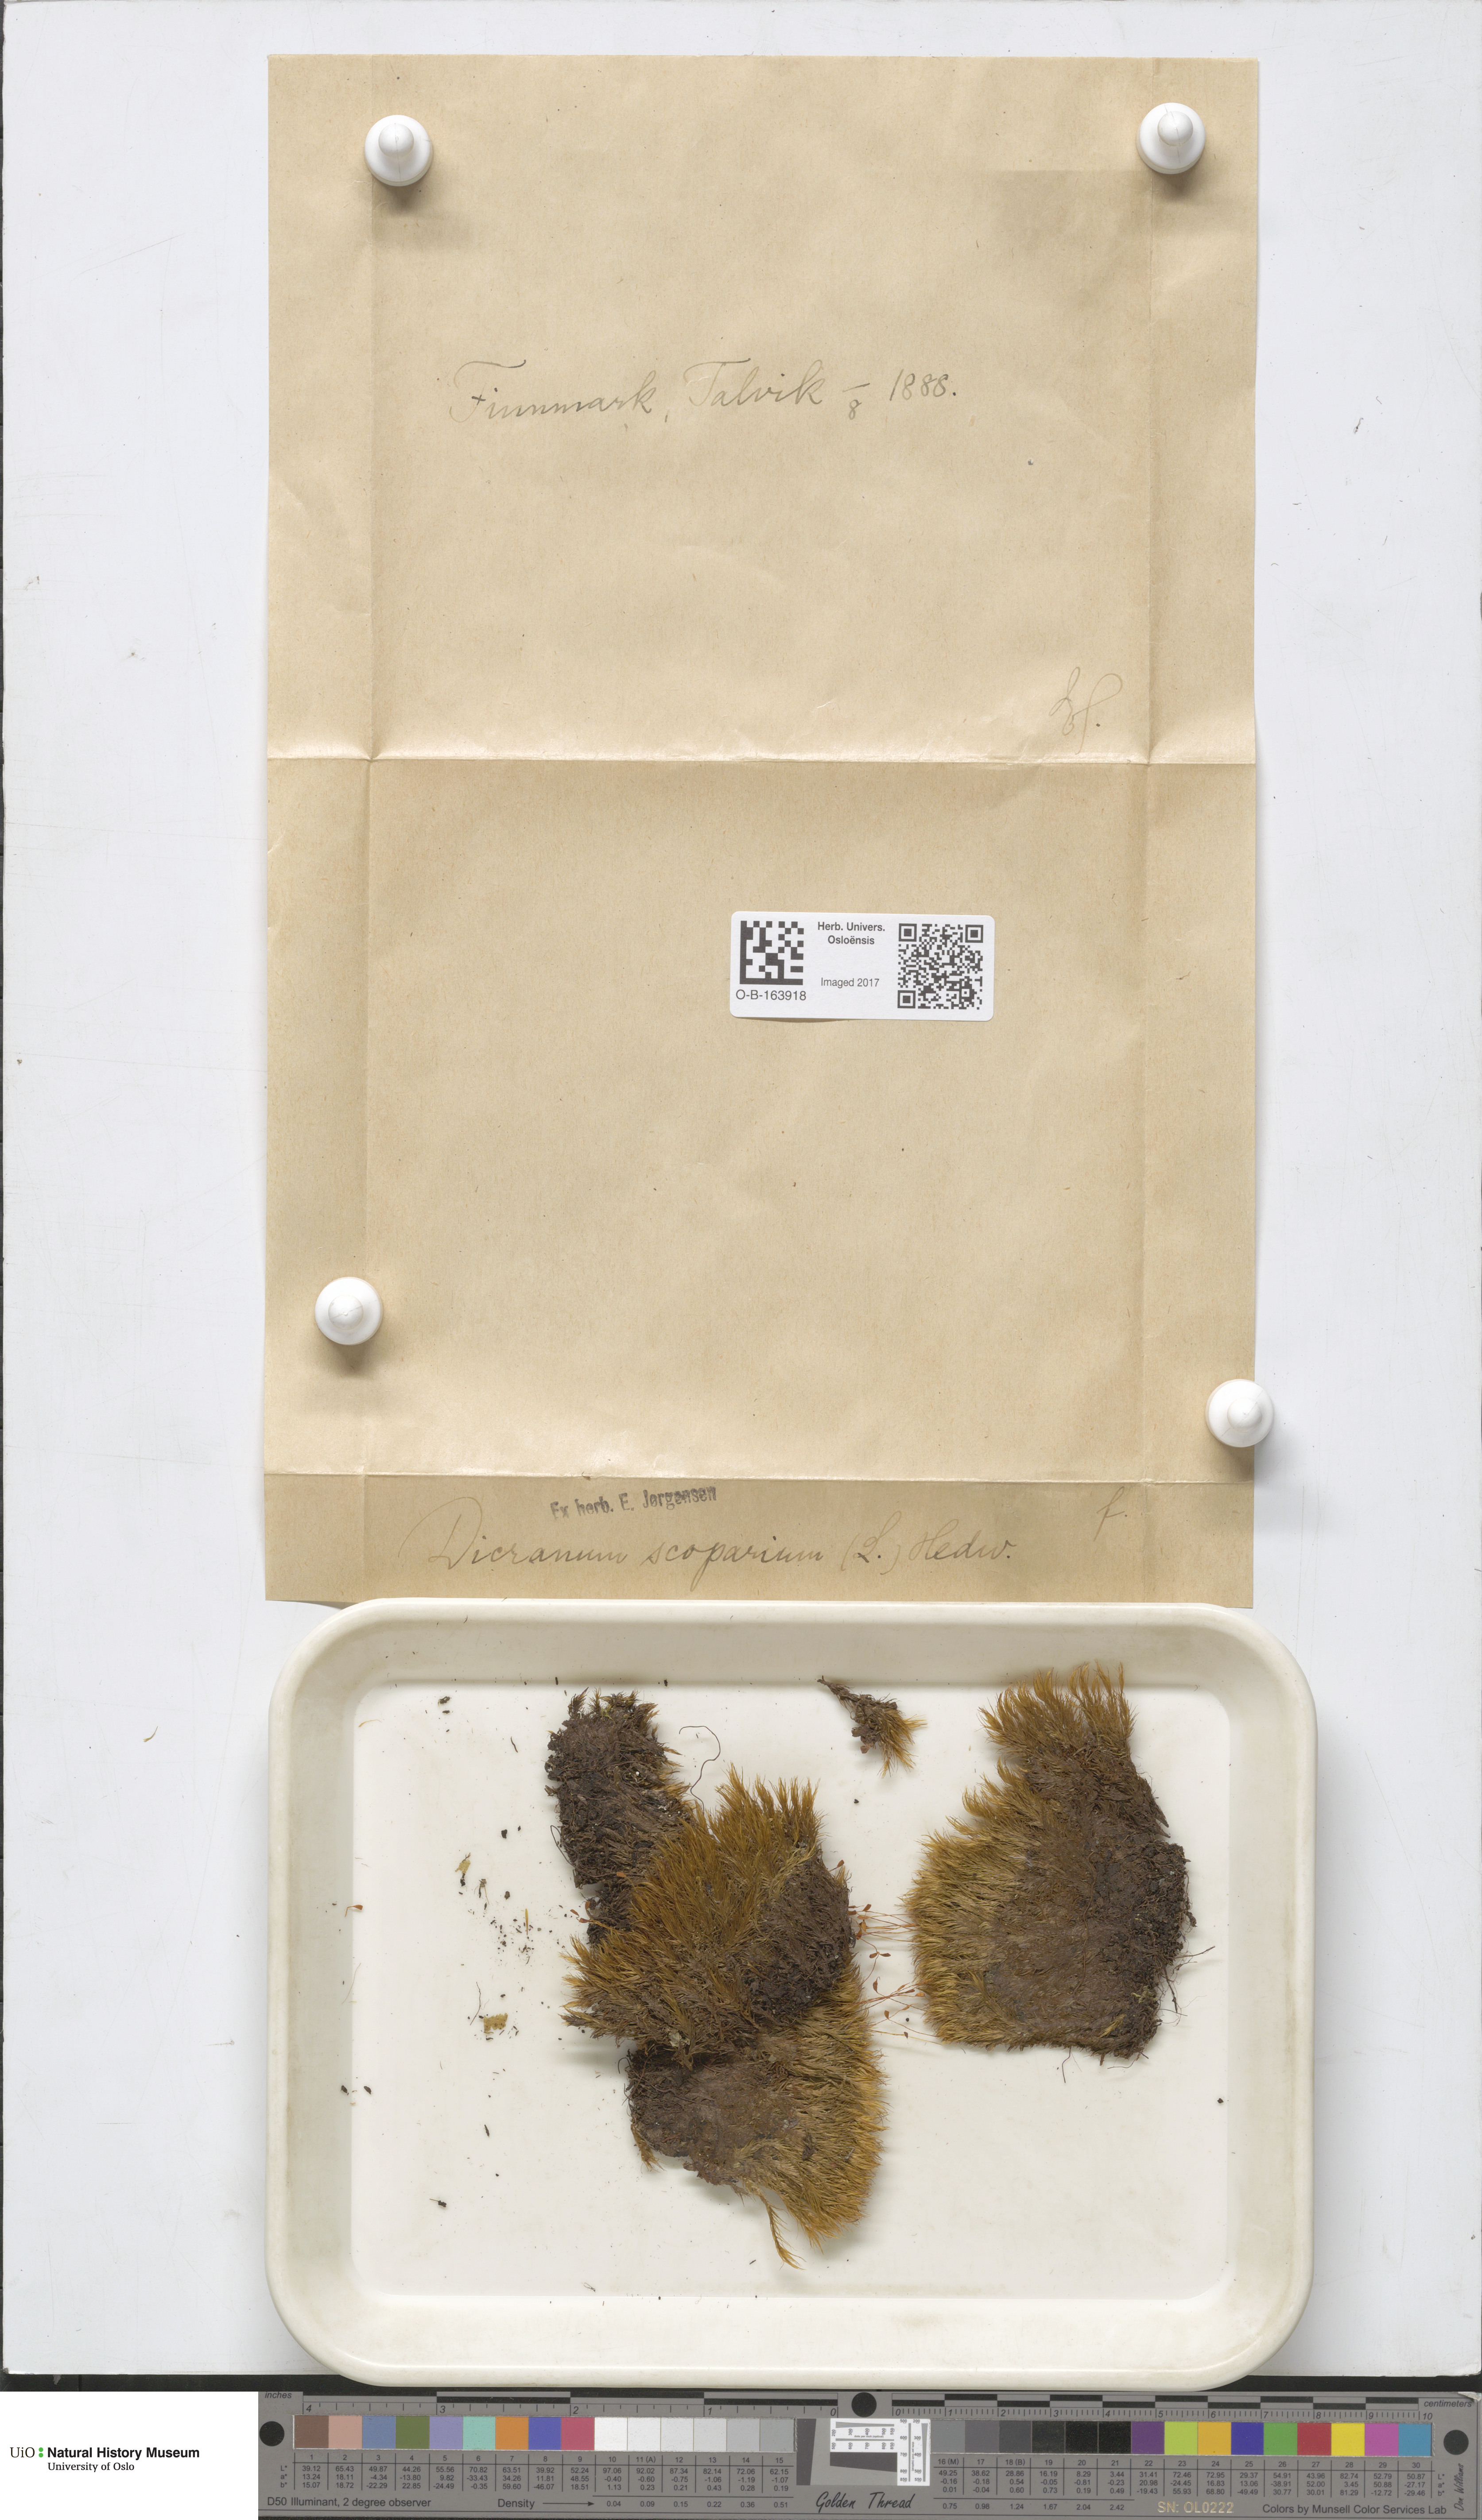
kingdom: Plantae
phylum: Bryophyta
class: Bryopsida
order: Dicranales
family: Dicranaceae
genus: Dicranum
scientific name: Dicranum scoparium
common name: Broom fork-moss
